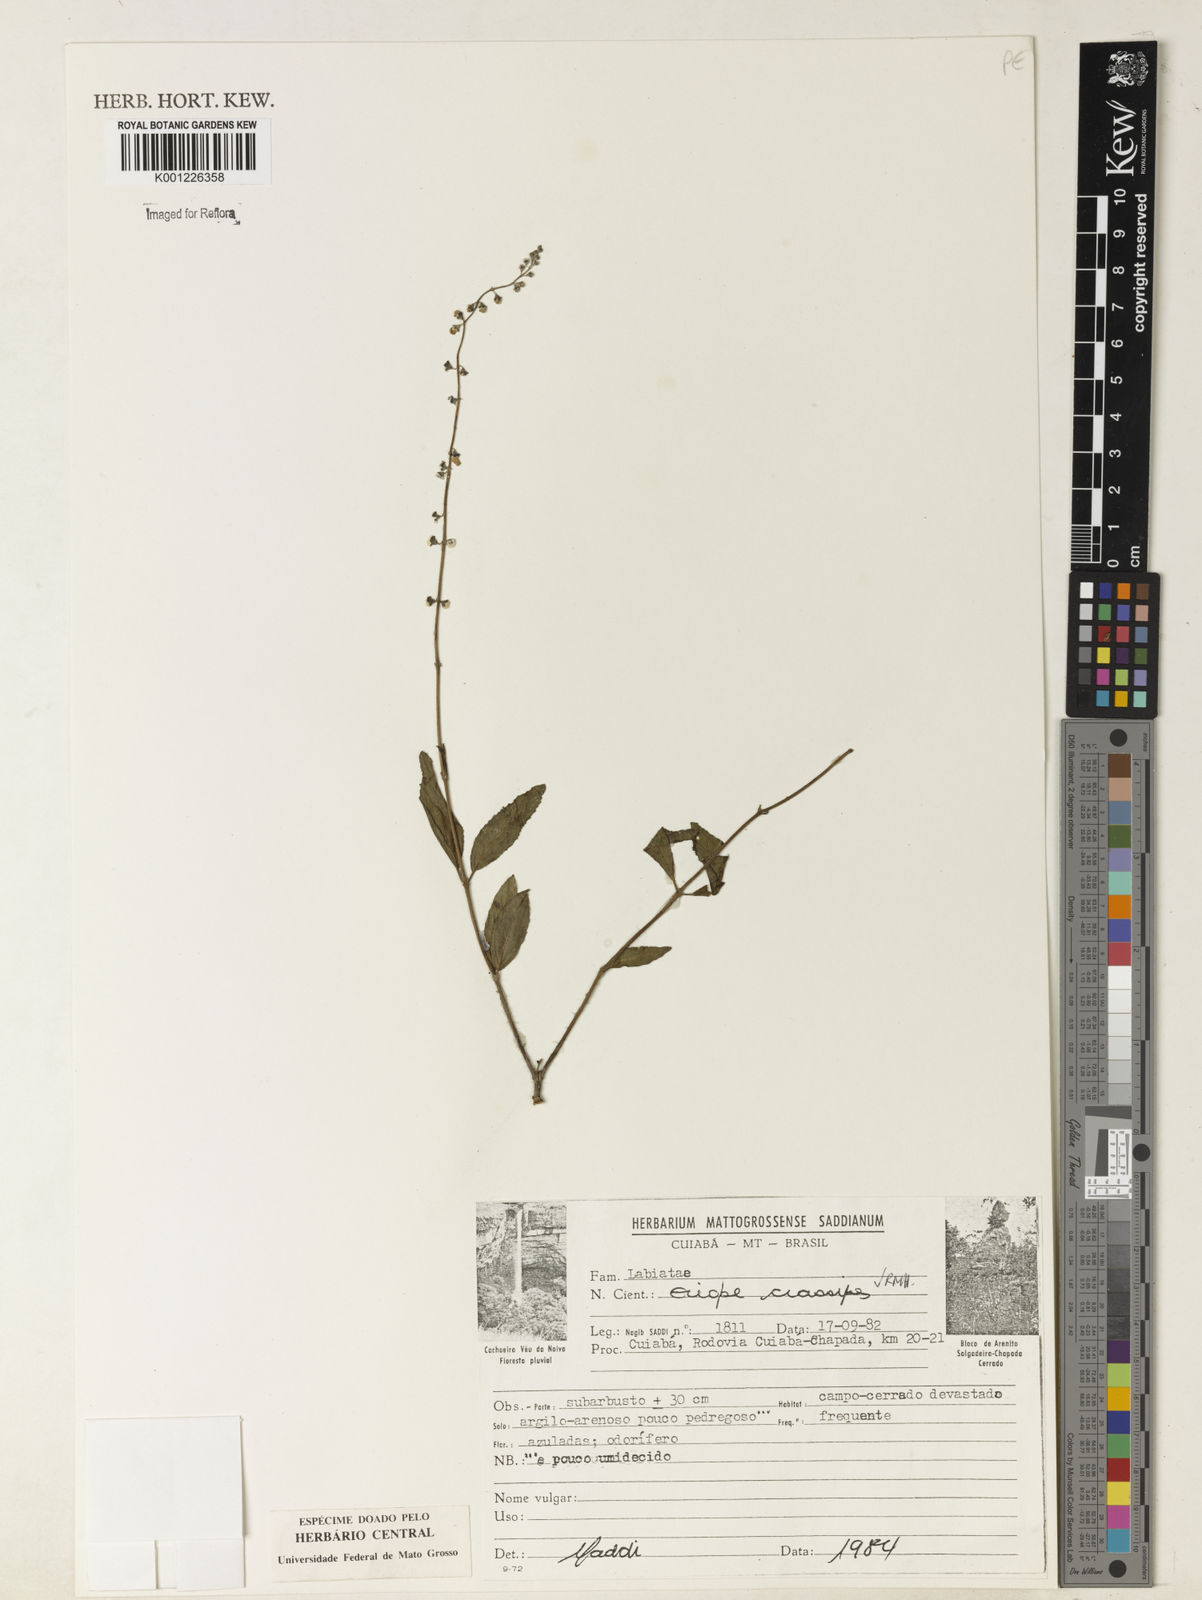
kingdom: Plantae
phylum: Tracheophyta
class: Magnoliopsida
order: Lamiales
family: Lamiaceae
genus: Eriope
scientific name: Eriope crassipes
